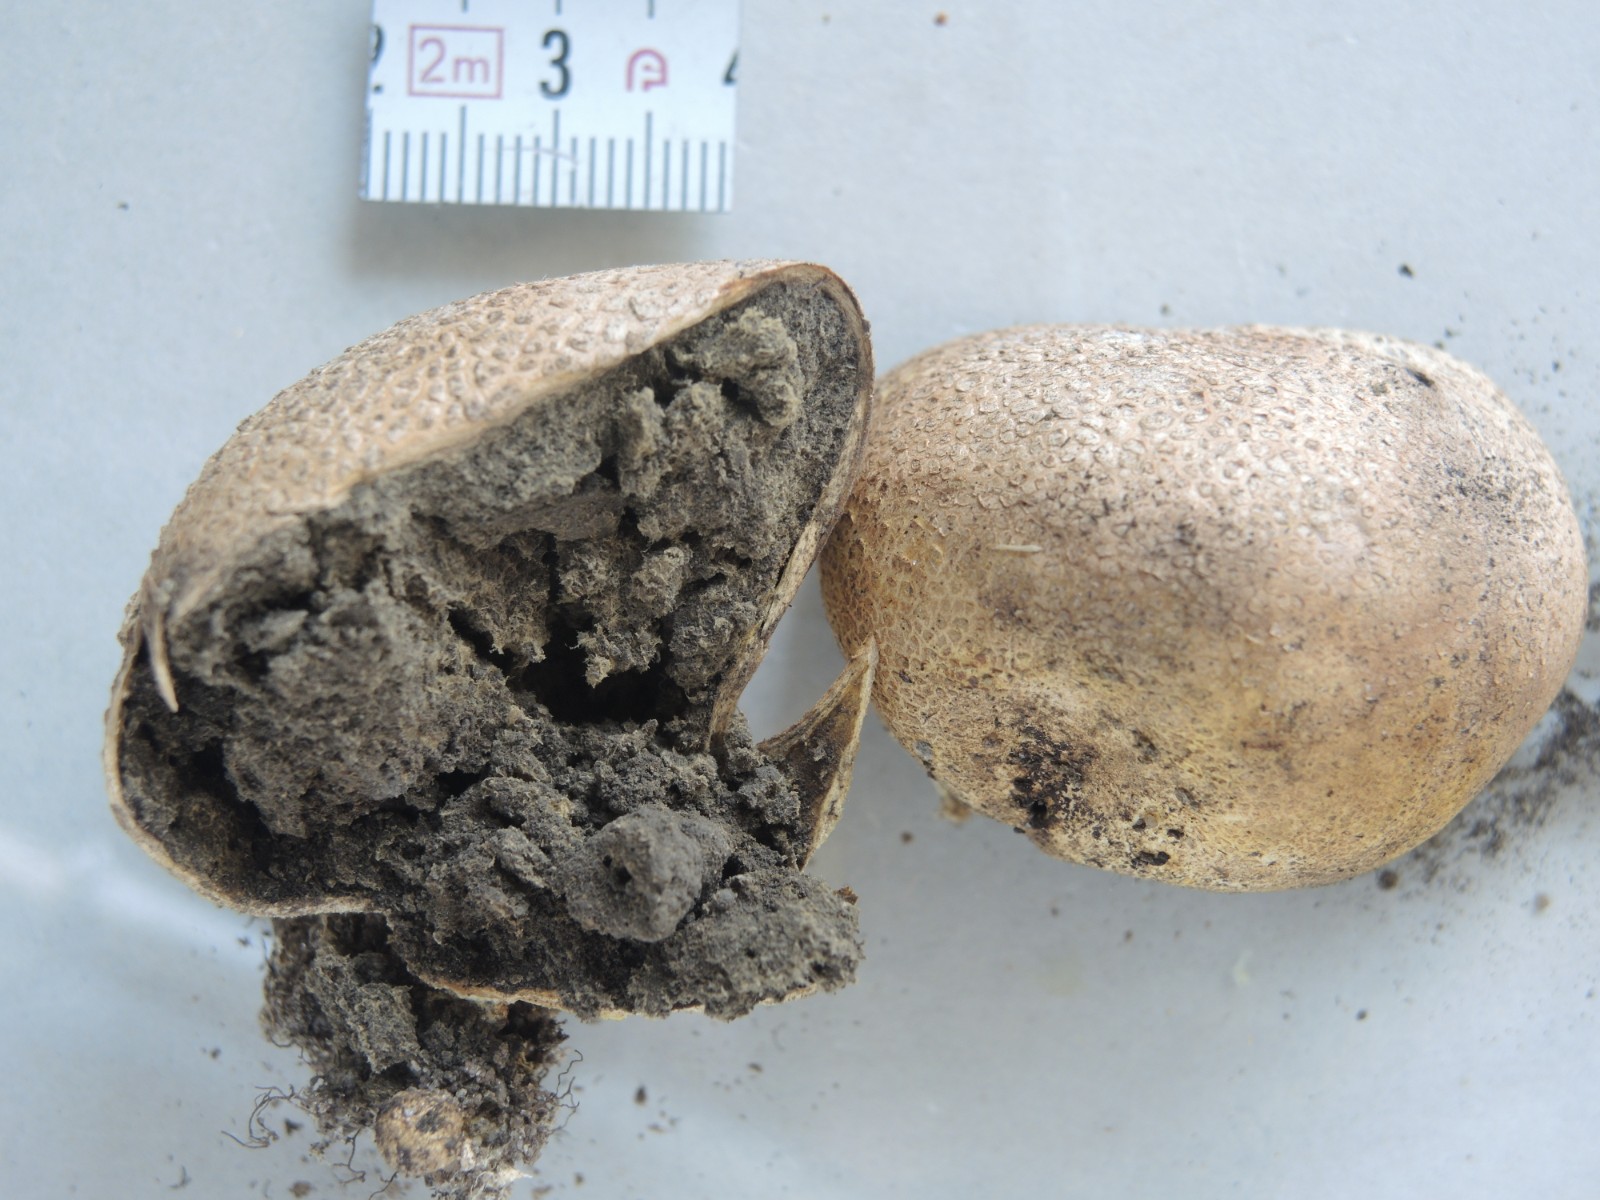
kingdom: Fungi
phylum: Basidiomycota
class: Agaricomycetes
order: Boletales
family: Sclerodermataceae
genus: Scleroderma
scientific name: Scleroderma citrinum
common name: almindelig bruskbold
